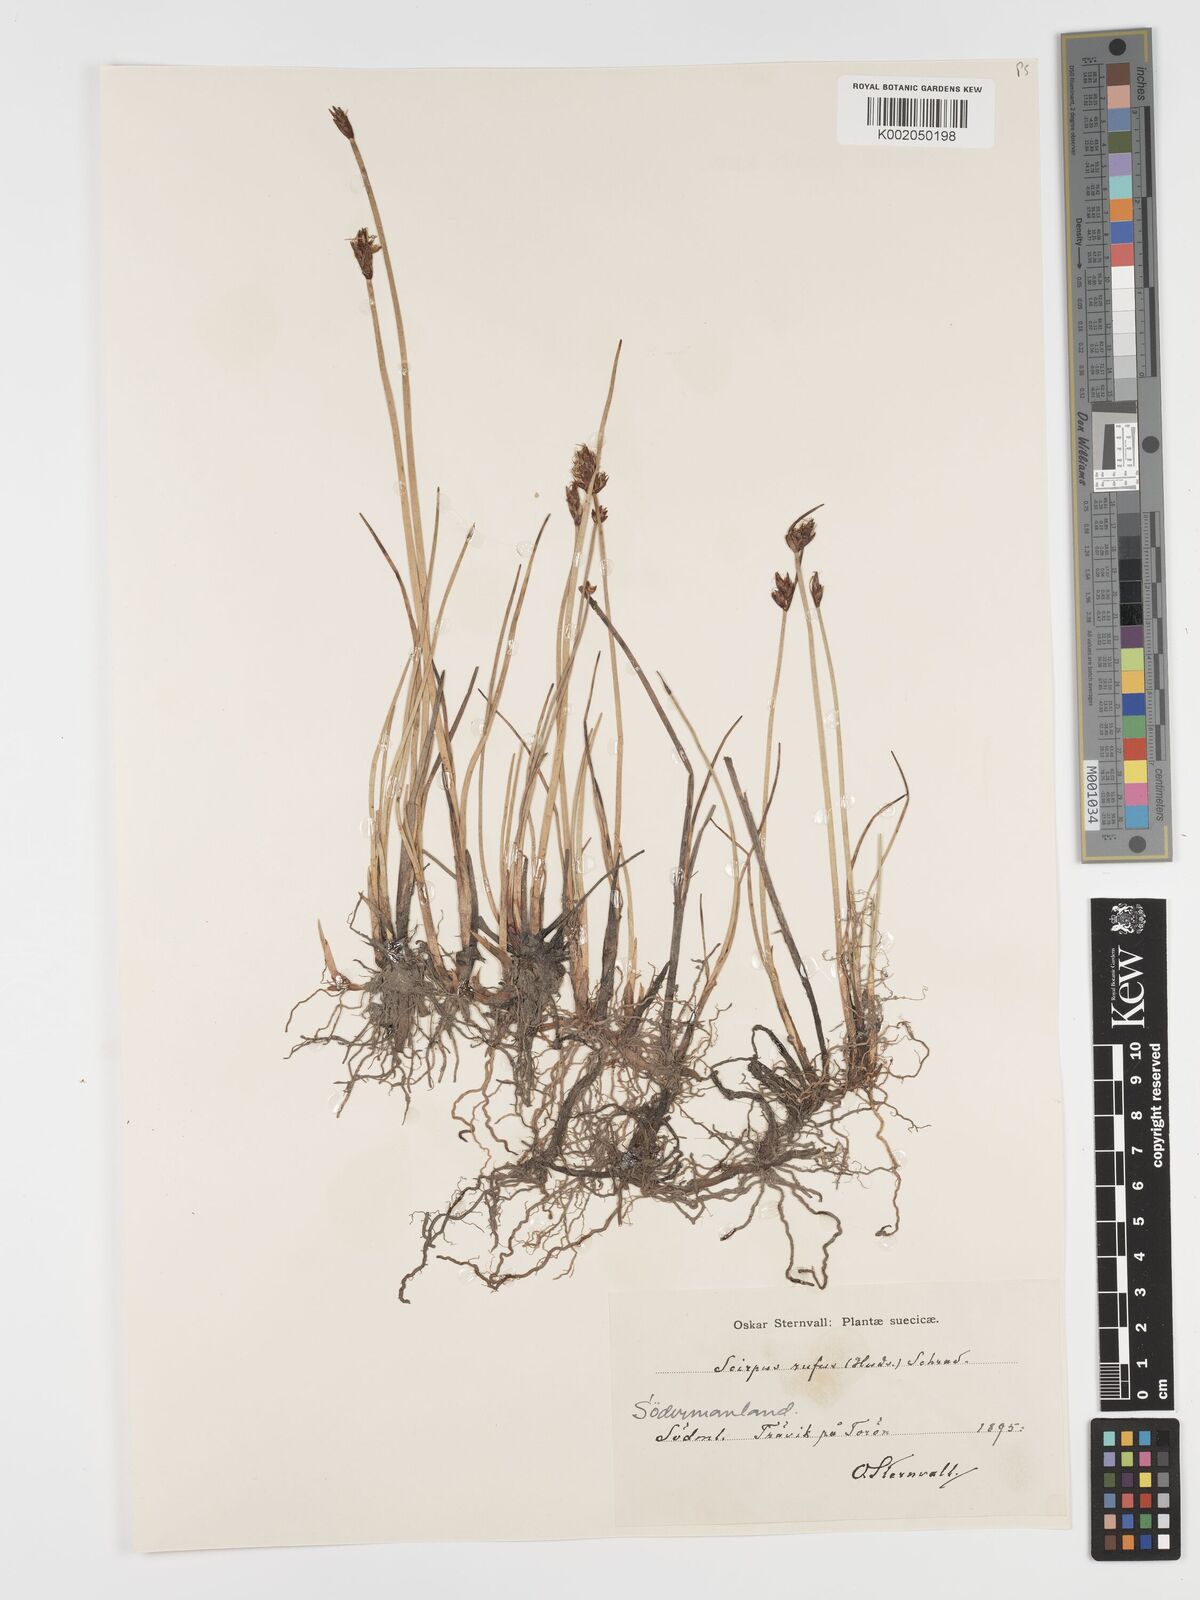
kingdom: Plantae
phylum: Tracheophyta
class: Liliopsida
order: Poales
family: Cyperaceae
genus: Blysmus
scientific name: Blysmus rufus
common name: Saltmarsh flat-sedge
